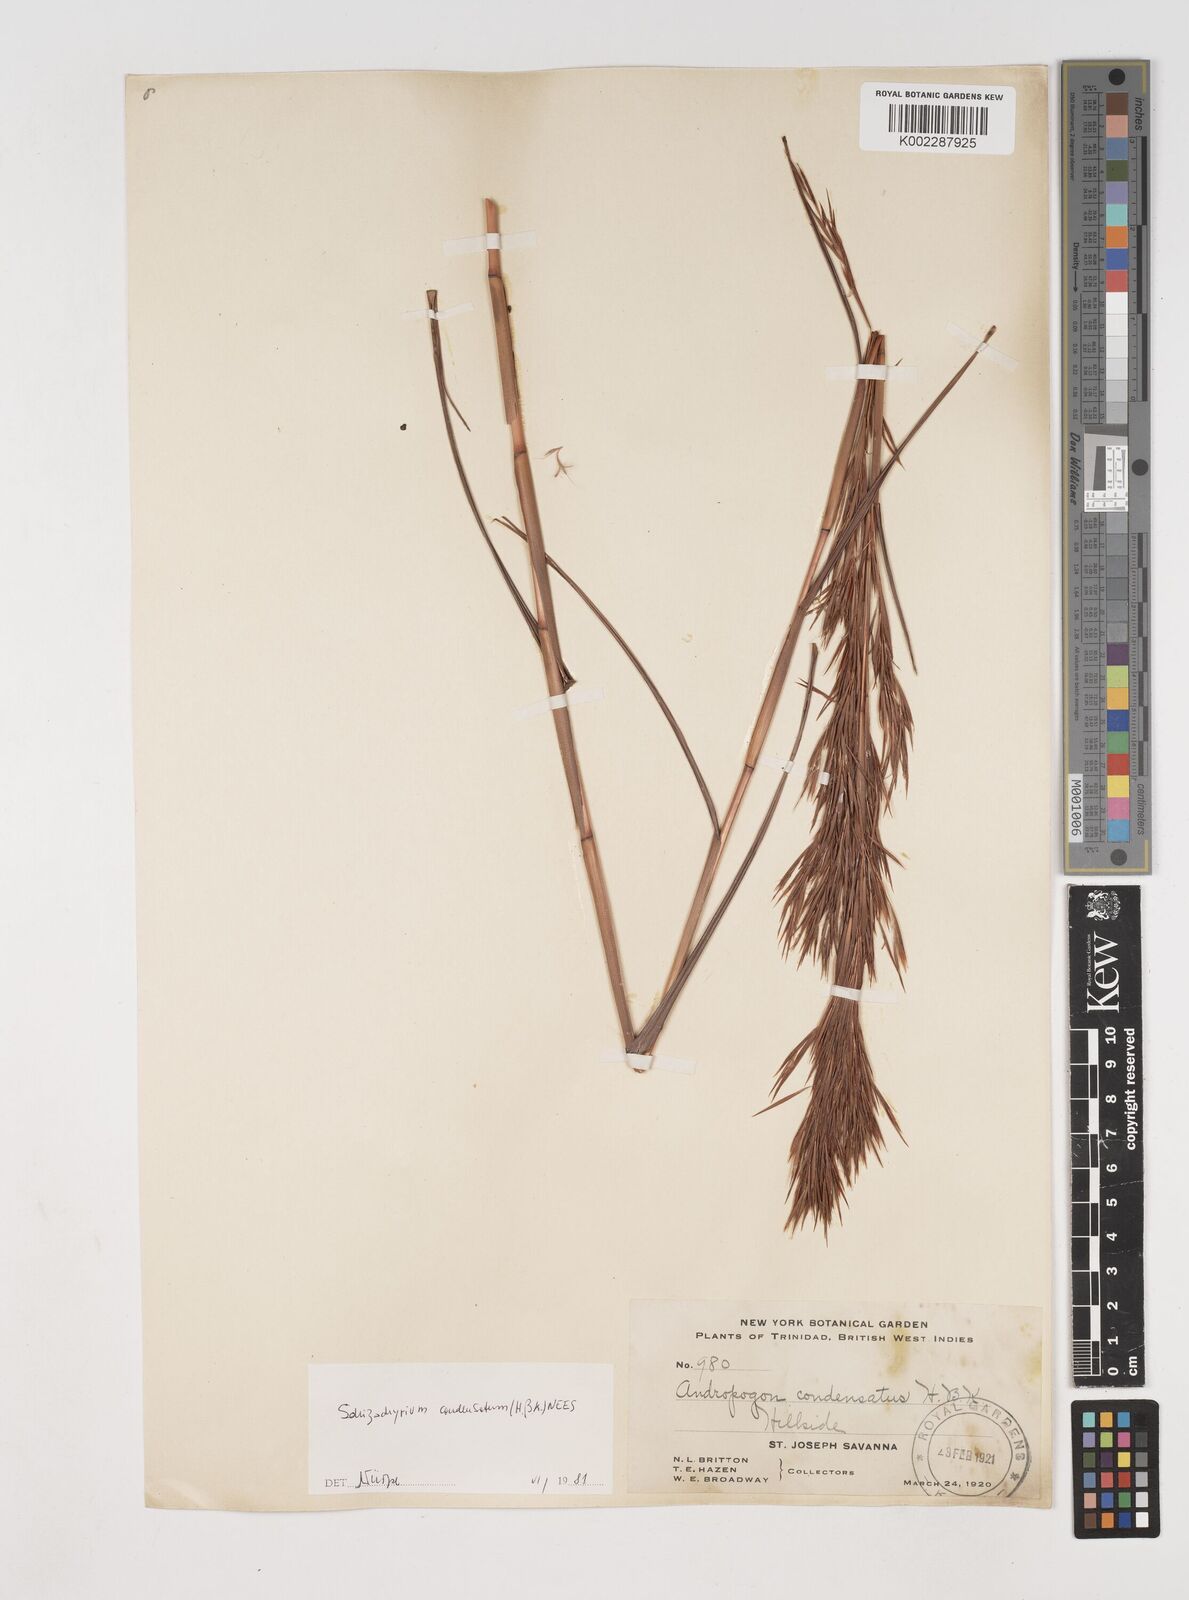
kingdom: Plantae
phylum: Tracheophyta
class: Liliopsida
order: Poales
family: Poaceae
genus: Schizachyrium
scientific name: Schizachyrium condensatum
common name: Bush beardgrass
